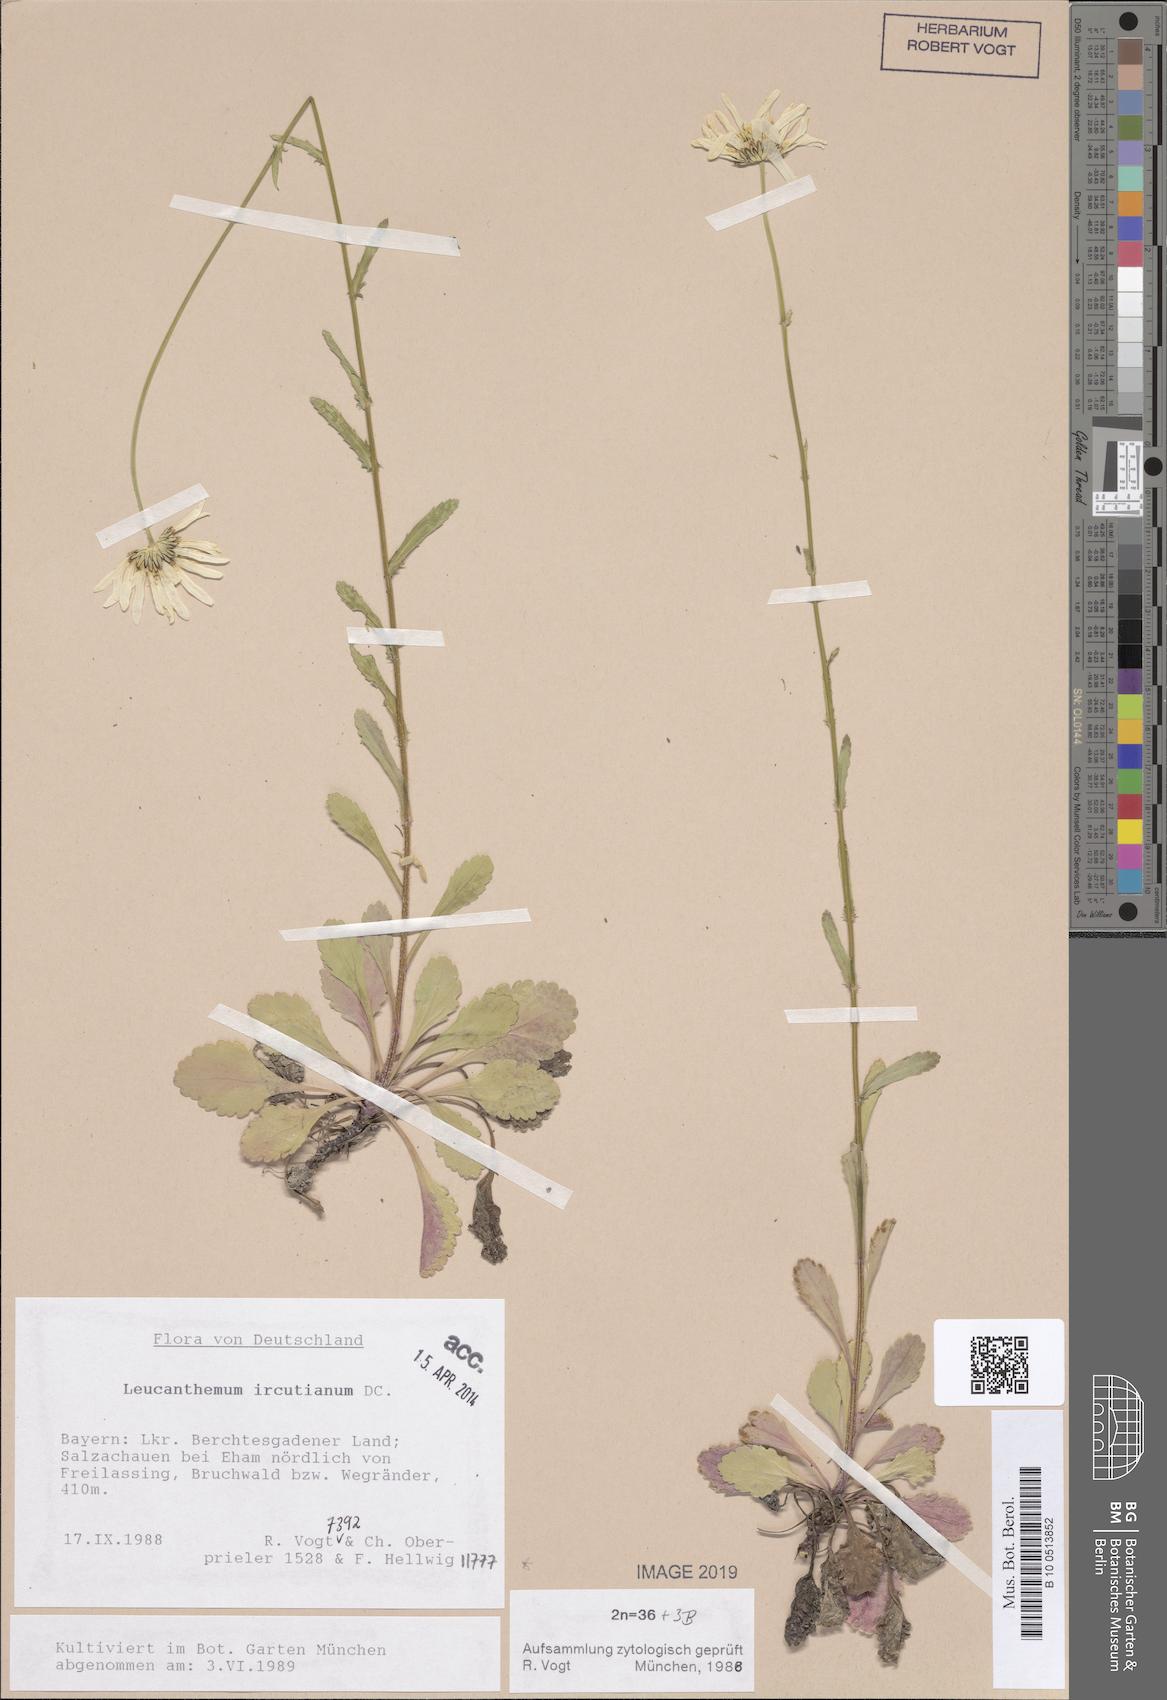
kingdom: Plantae
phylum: Tracheophyta
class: Magnoliopsida
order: Asterales
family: Asteraceae
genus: Leucanthemum
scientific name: Leucanthemum ircutianum
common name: Daisy
